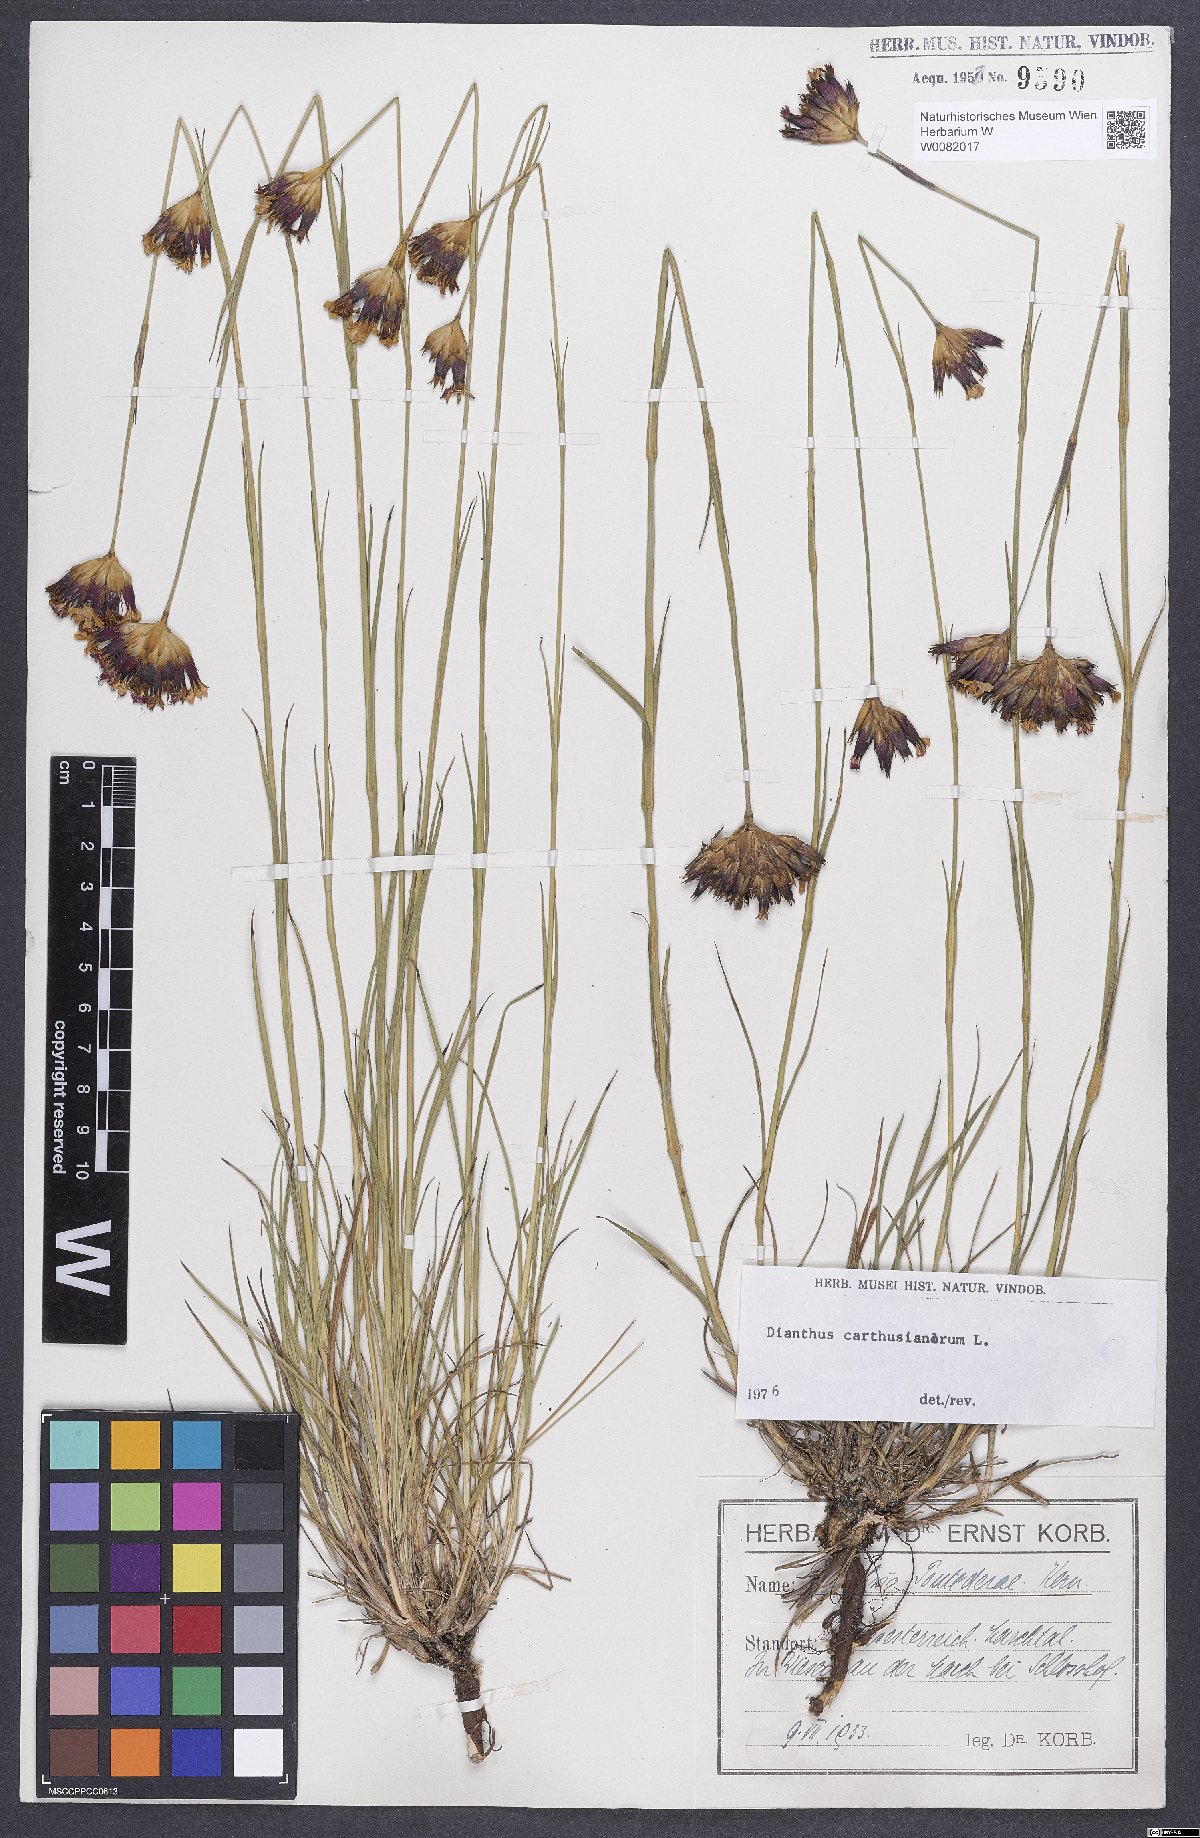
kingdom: Plantae
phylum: Tracheophyta
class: Magnoliopsida
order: Caryophyllales
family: Caryophyllaceae
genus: Dianthus
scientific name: Dianthus carthusianorum
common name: Carthusian pink
